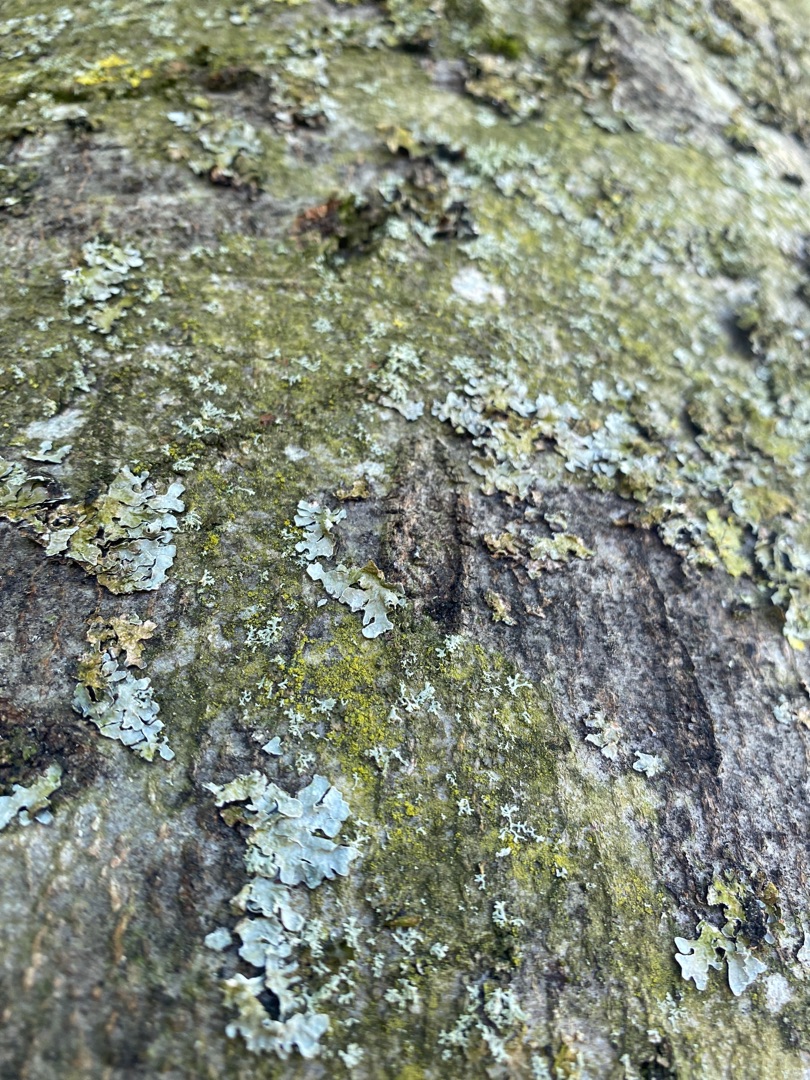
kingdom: Fungi
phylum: Ascomycota
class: Lecanoromycetes
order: Lecanorales
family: Parmeliaceae
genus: Parmelia
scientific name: Parmelia sulcata
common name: Rynket skållav
